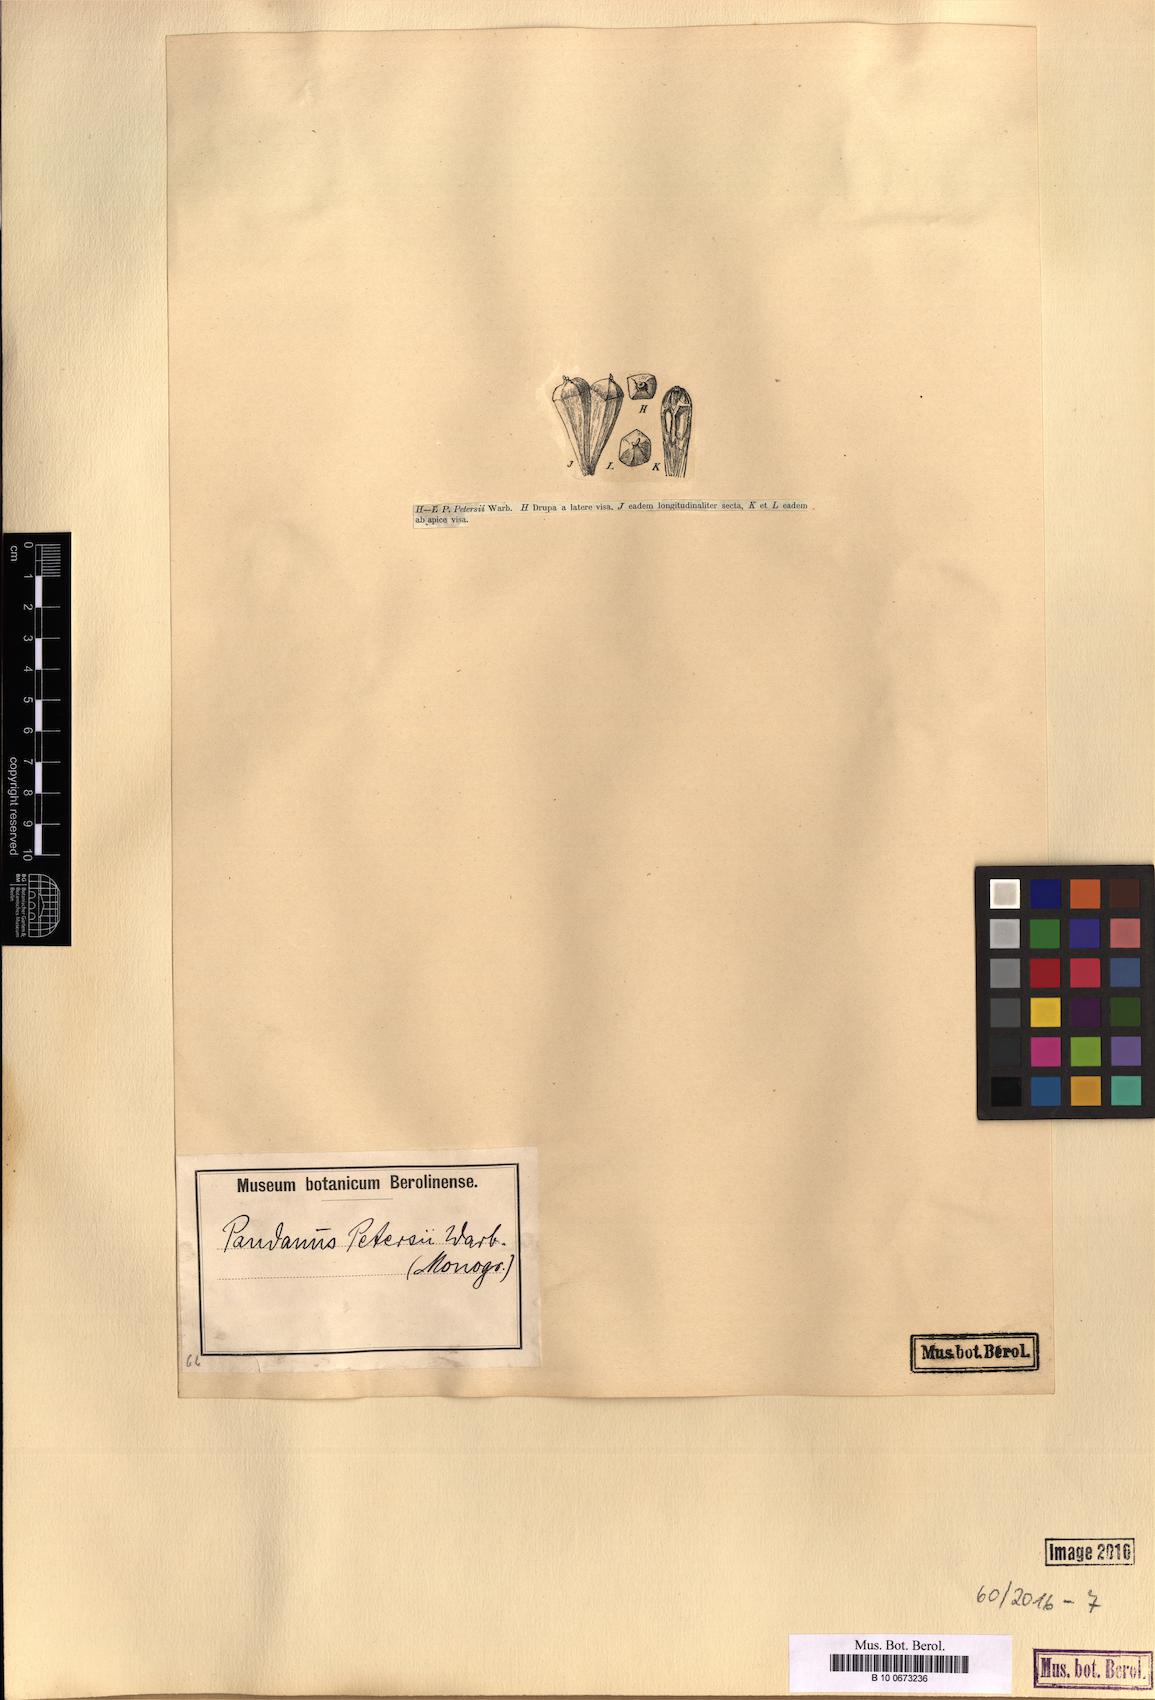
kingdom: Plantae
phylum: Tracheophyta
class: Liliopsida
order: Pandanales
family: Pandanaceae
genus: Pandanus
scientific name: Pandanus livingstonianus
